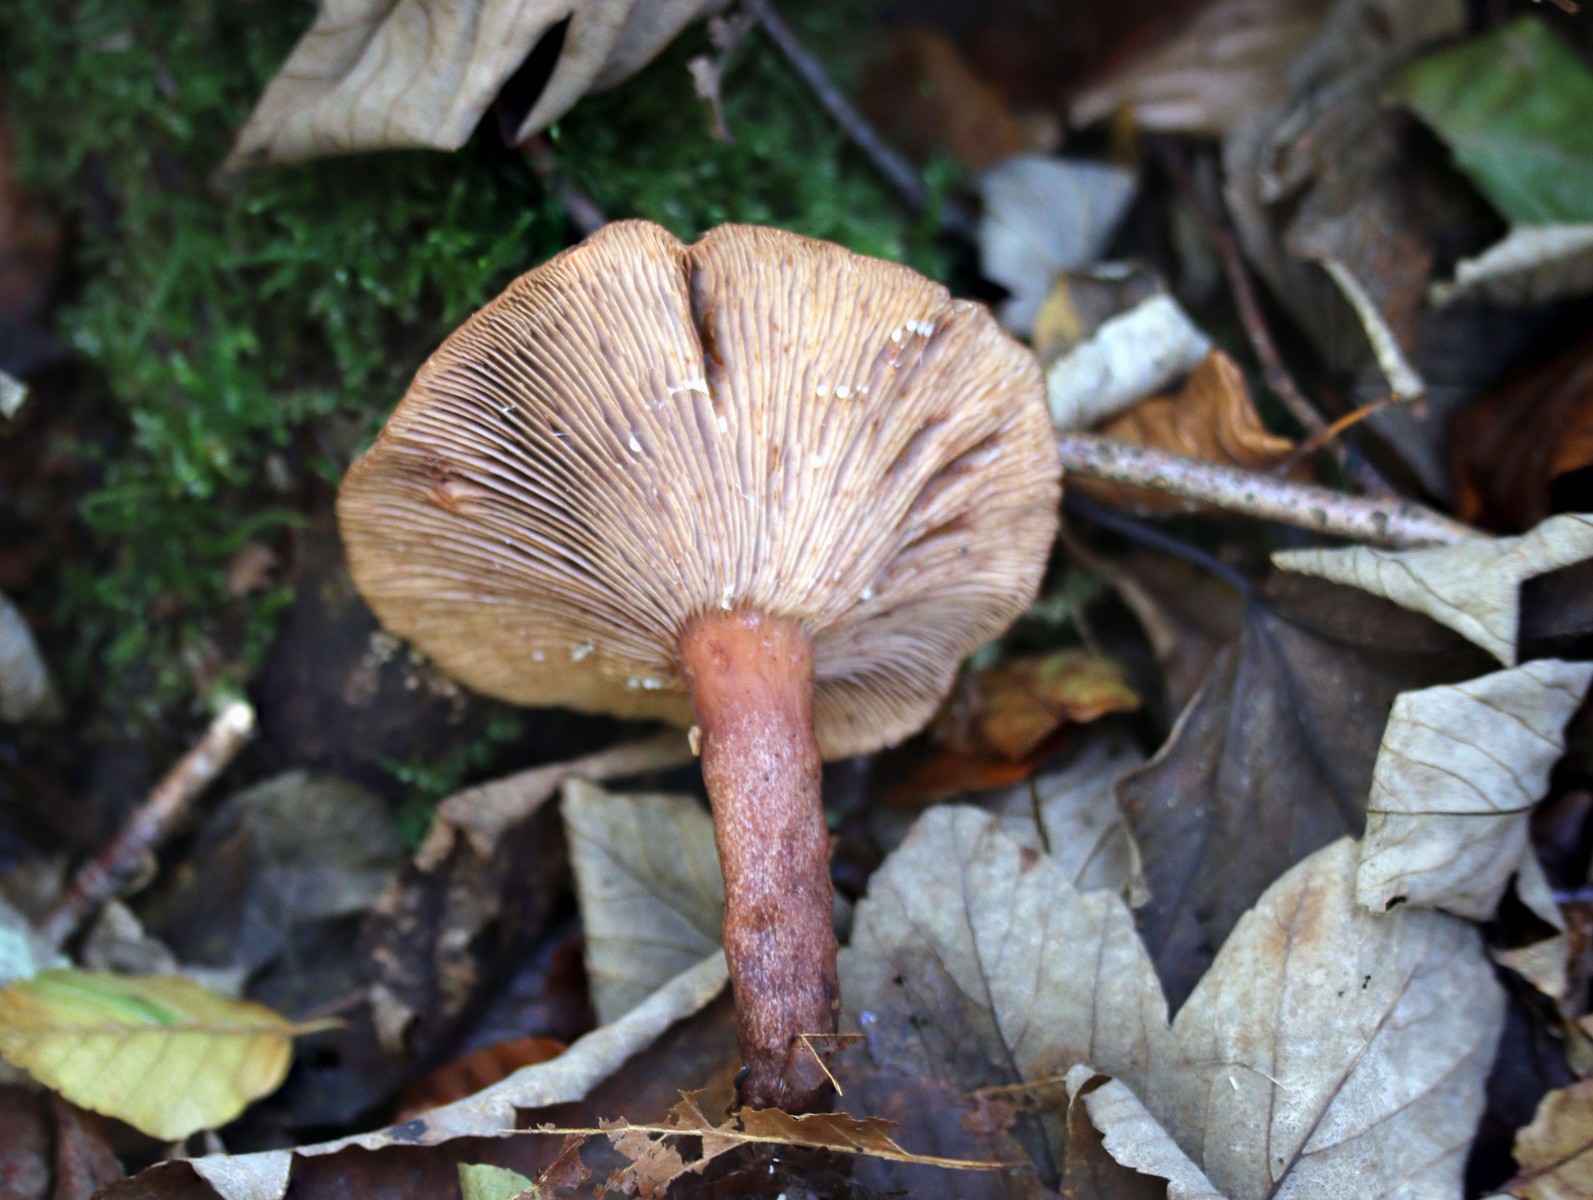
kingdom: Fungi
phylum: Basidiomycota
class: Agaricomycetes
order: Russulales
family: Russulaceae
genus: Lactarius
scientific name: Lactarius camphoratus
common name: kamfer-mælkehat
